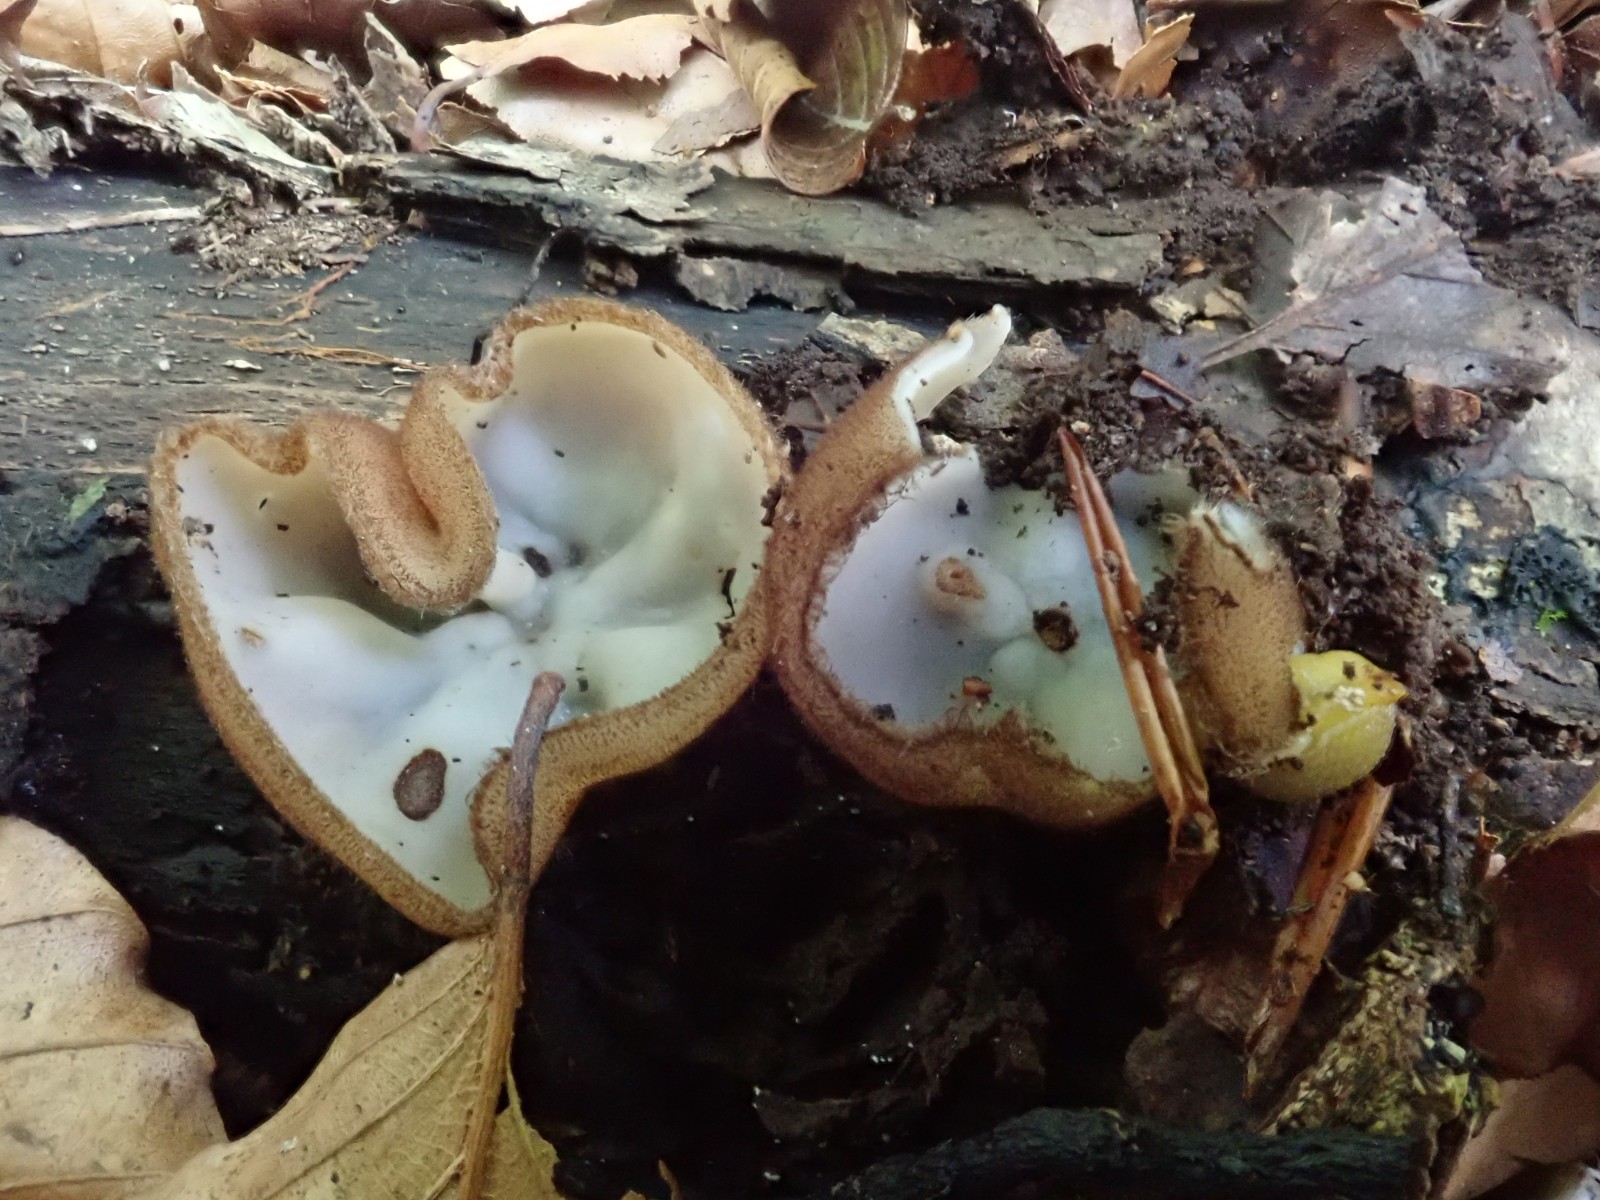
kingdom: Fungi
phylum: Ascomycota
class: Pezizomycetes
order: Pezizales
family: Pyronemataceae
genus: Humaria
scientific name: Humaria hemisphaerica
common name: halvkugleformet børstebæger
